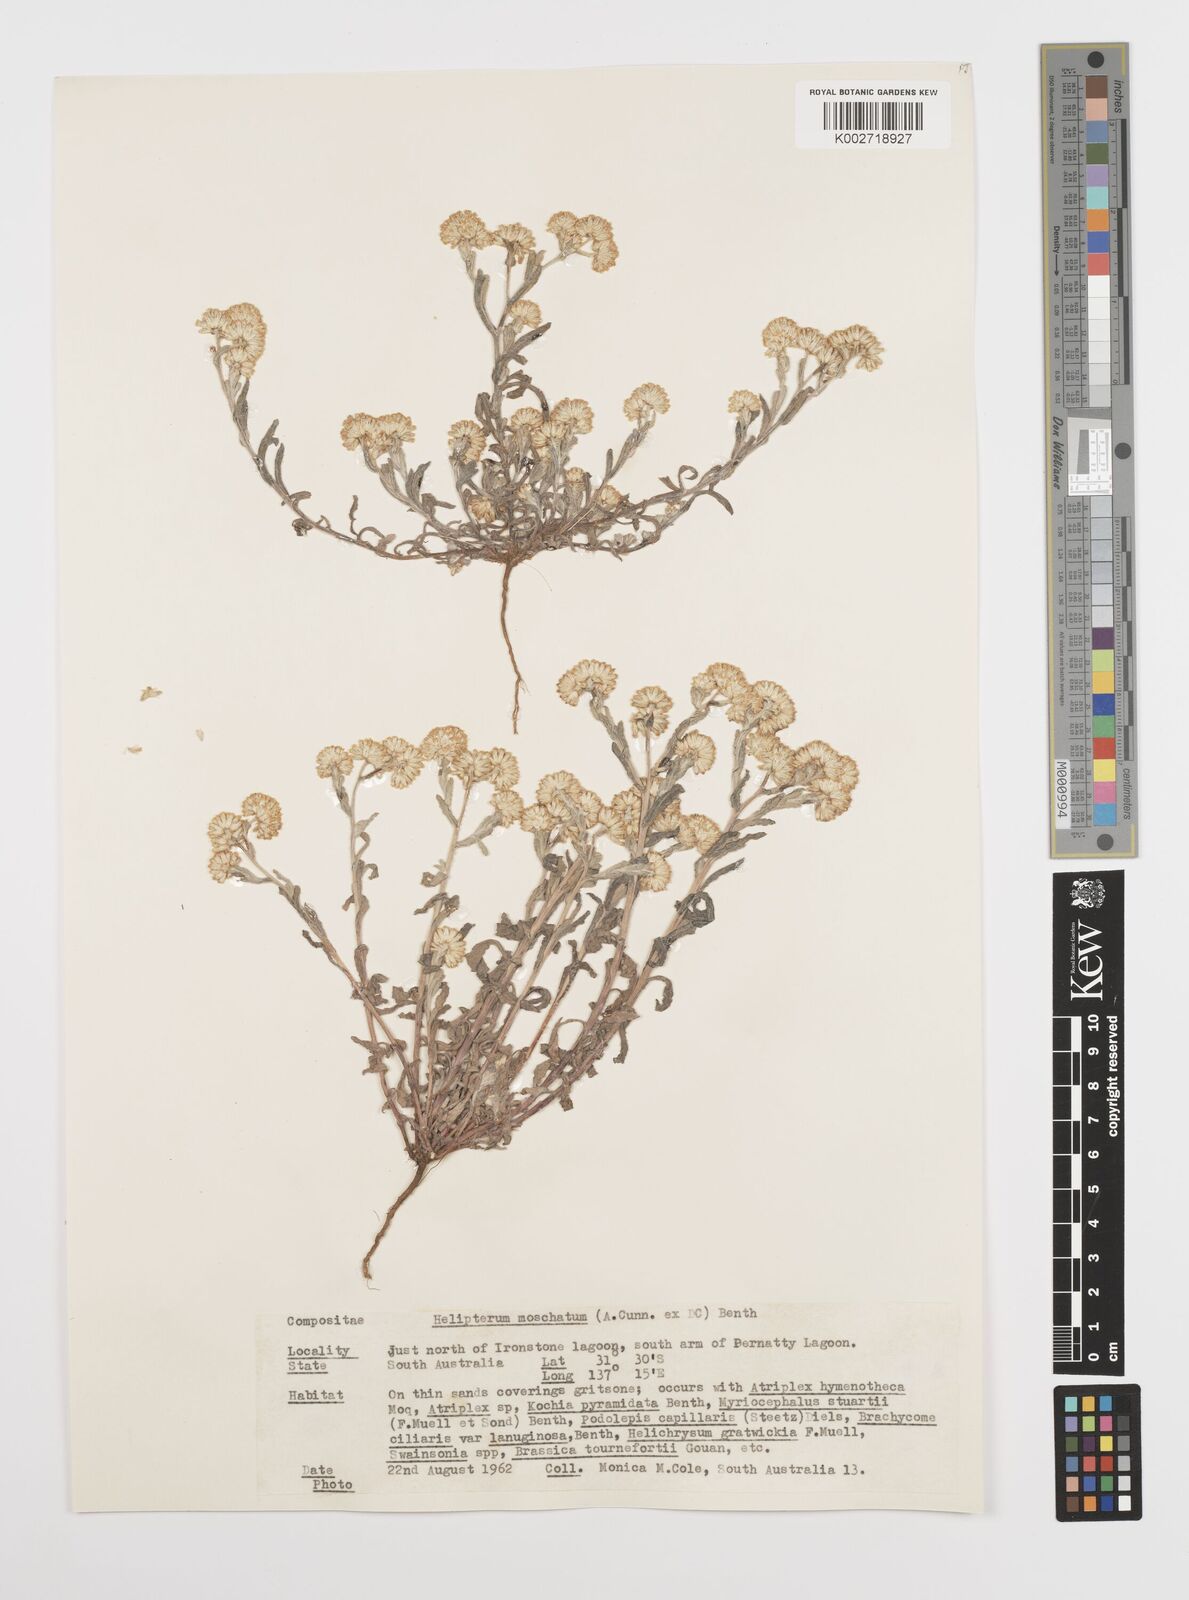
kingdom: Plantae
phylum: Tracheophyta
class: Magnoliopsida
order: Asterales
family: Asteraceae
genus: Rhodanthe
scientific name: Rhodanthe moschata
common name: Musk sunray
